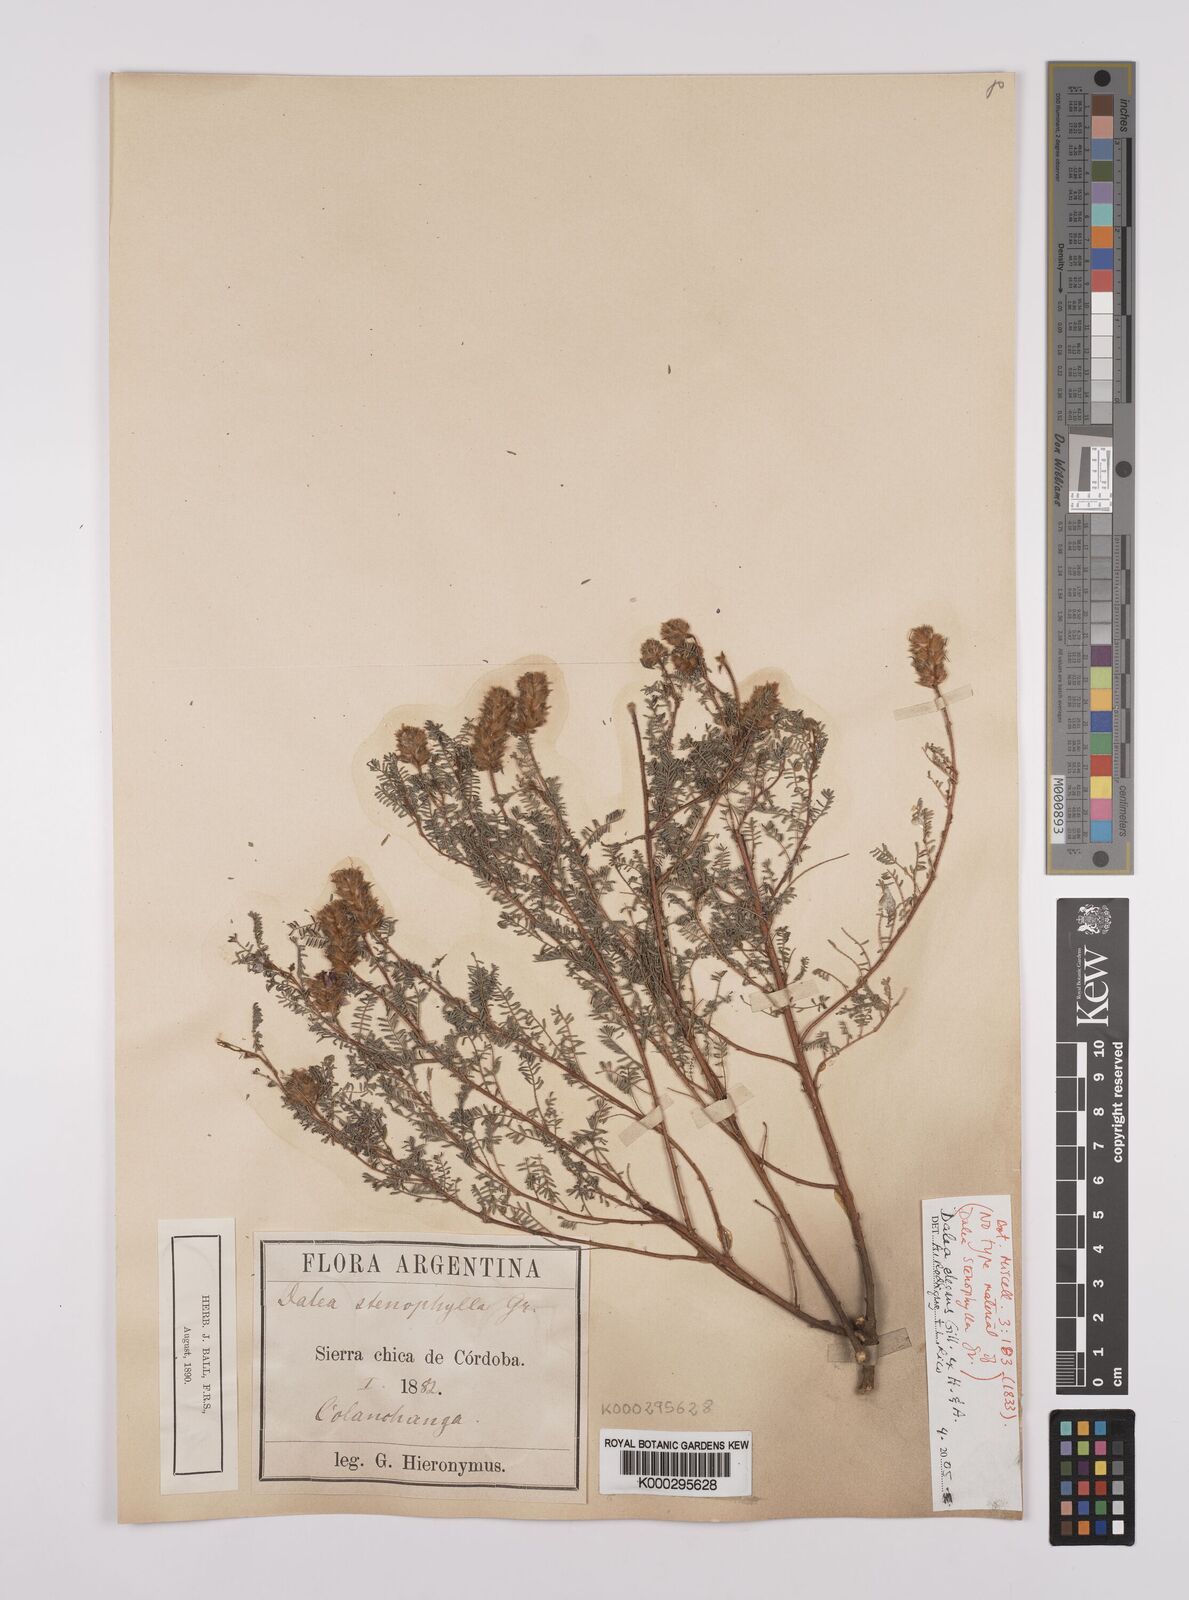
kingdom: Plantae
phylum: Tracheophyta
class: Magnoliopsida
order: Fabales
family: Fabaceae
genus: Dalea
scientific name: Dalea elegans
